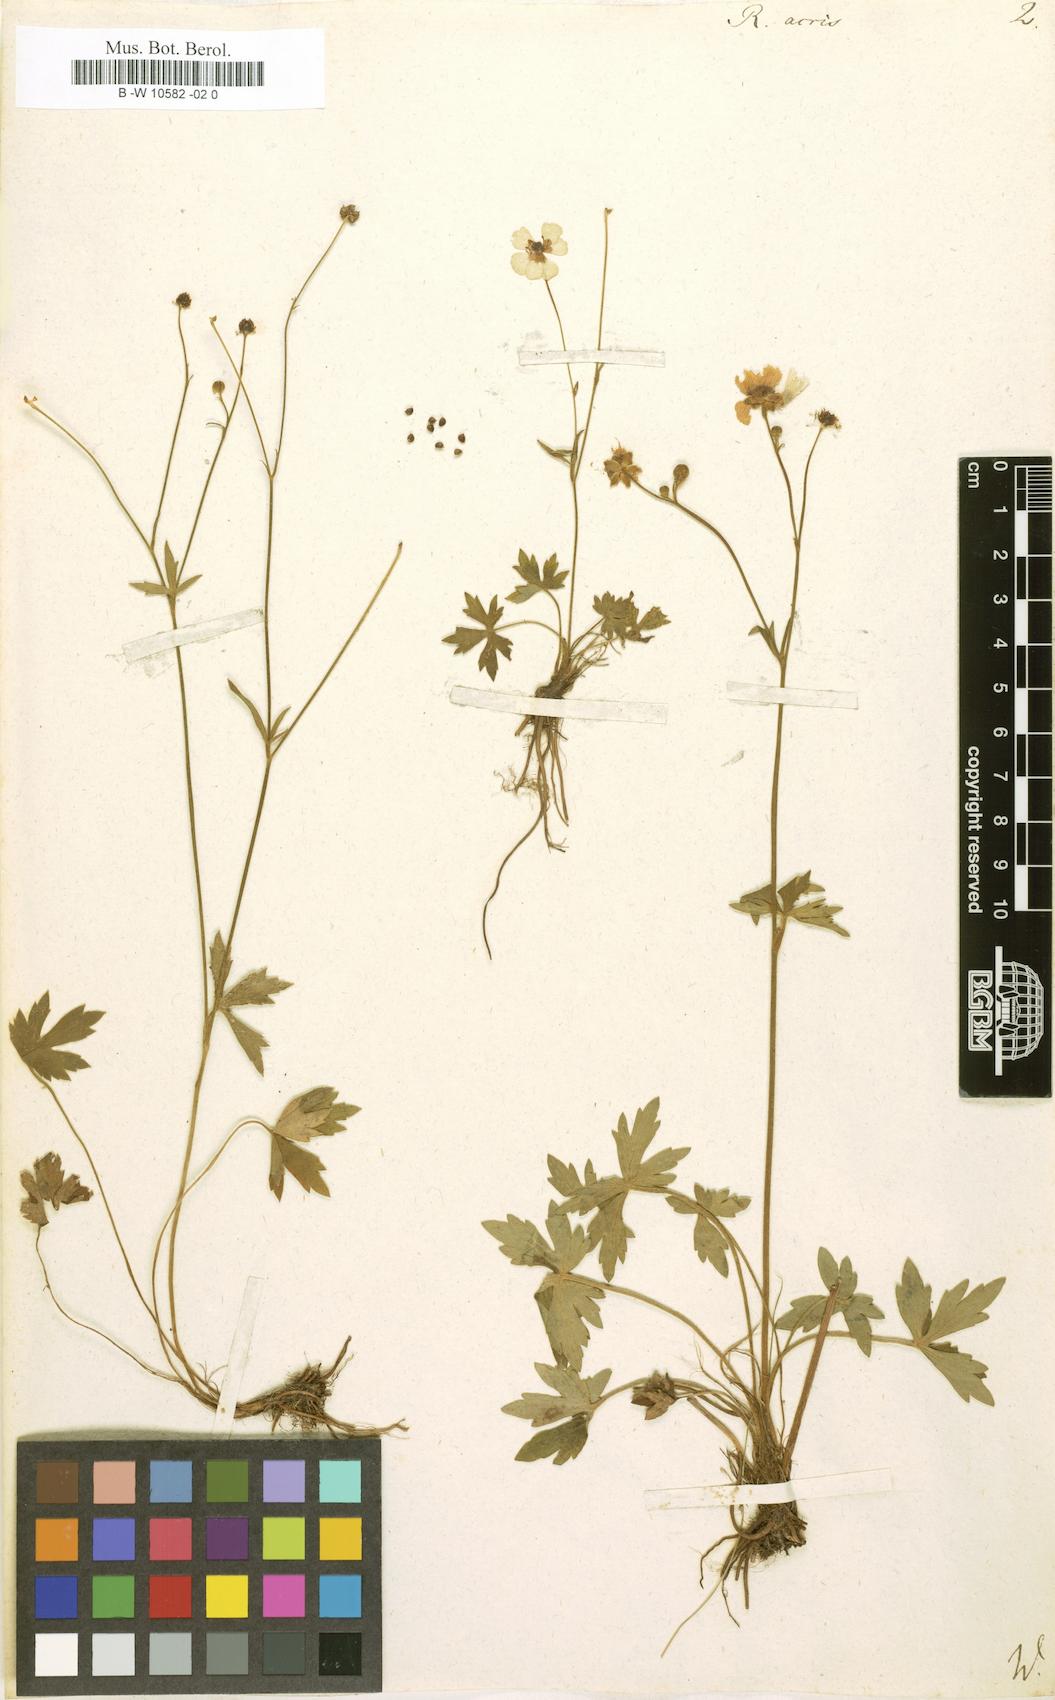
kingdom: Plantae
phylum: Tracheophyta
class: Magnoliopsida
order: Ranunculales
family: Ranunculaceae
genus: Ranunculus
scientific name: Ranunculus acris
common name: Meadow buttercup
